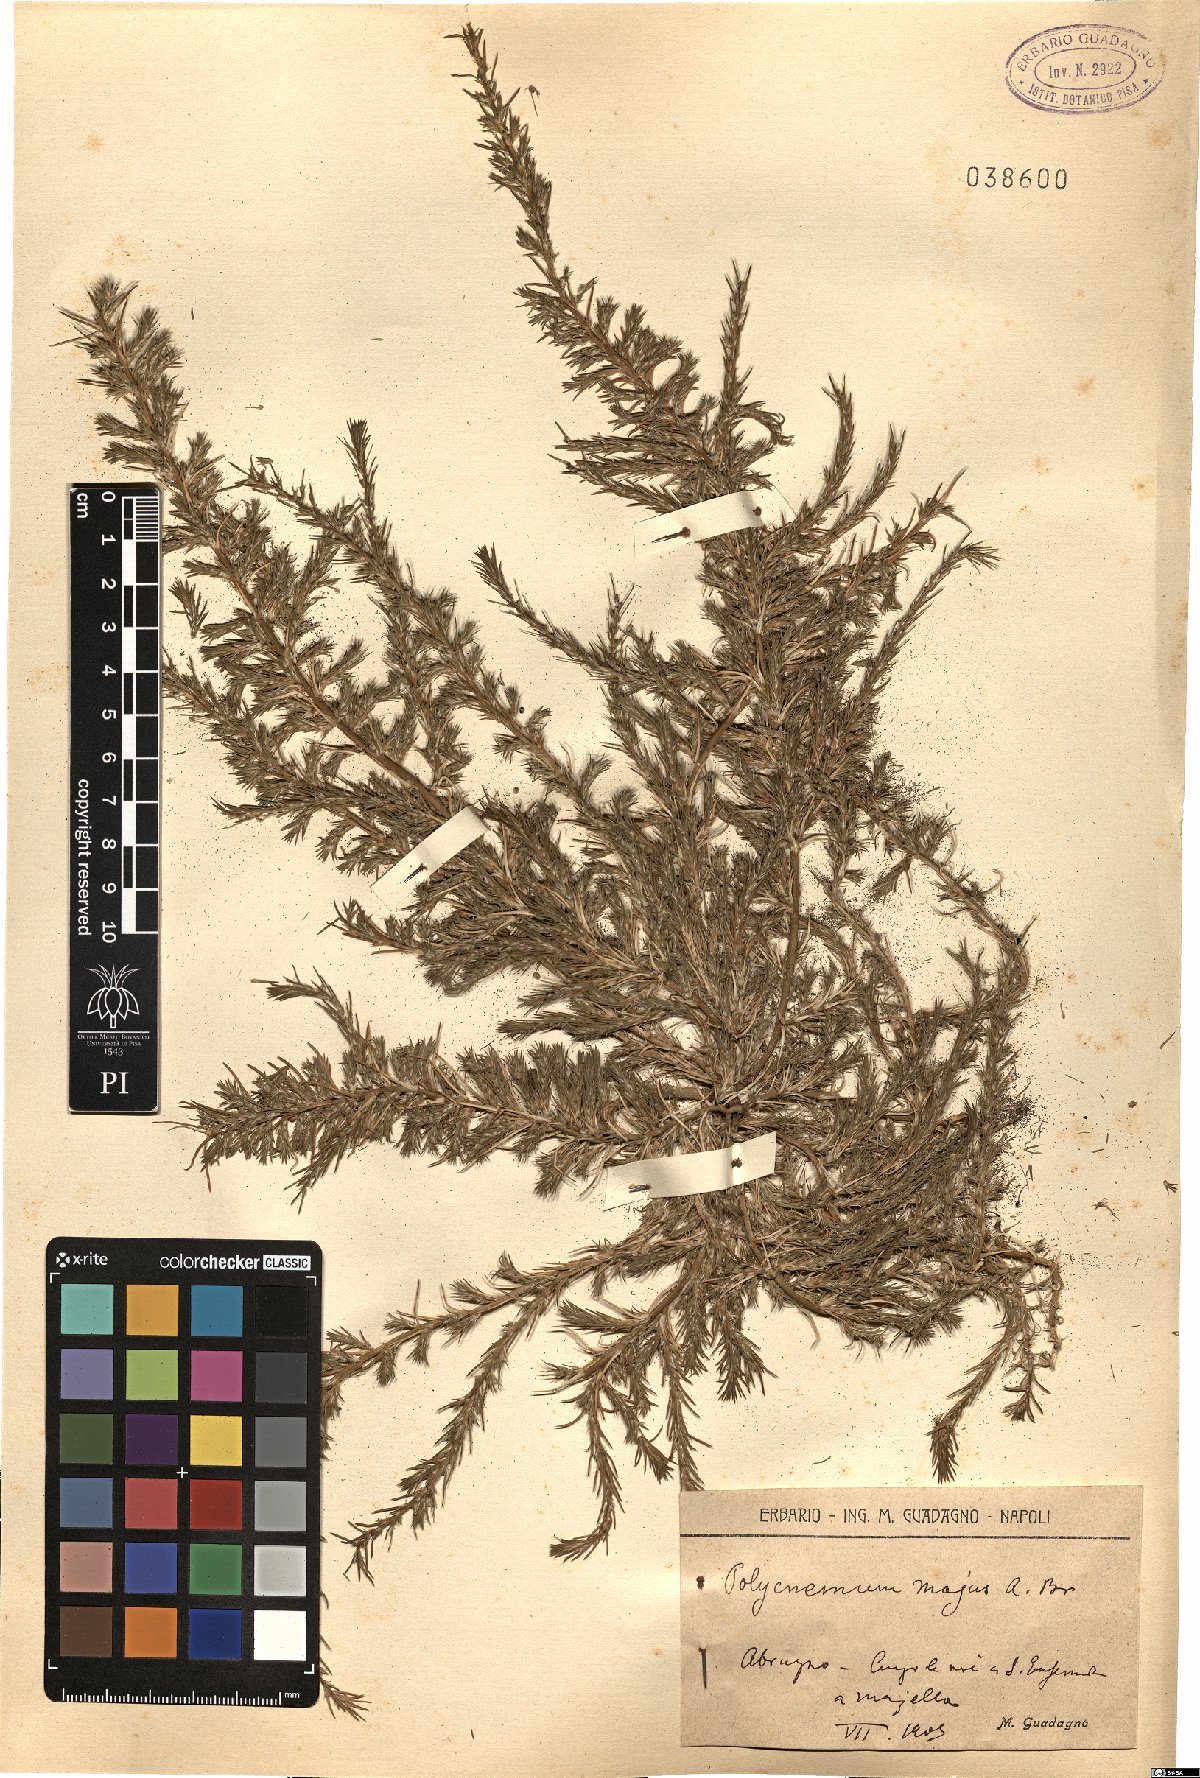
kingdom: Plantae
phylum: Tracheophyta
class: Magnoliopsida
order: Caryophyllales
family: Amaranthaceae
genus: Polycnemum
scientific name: Polycnemum majus
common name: Giant needleleaf
